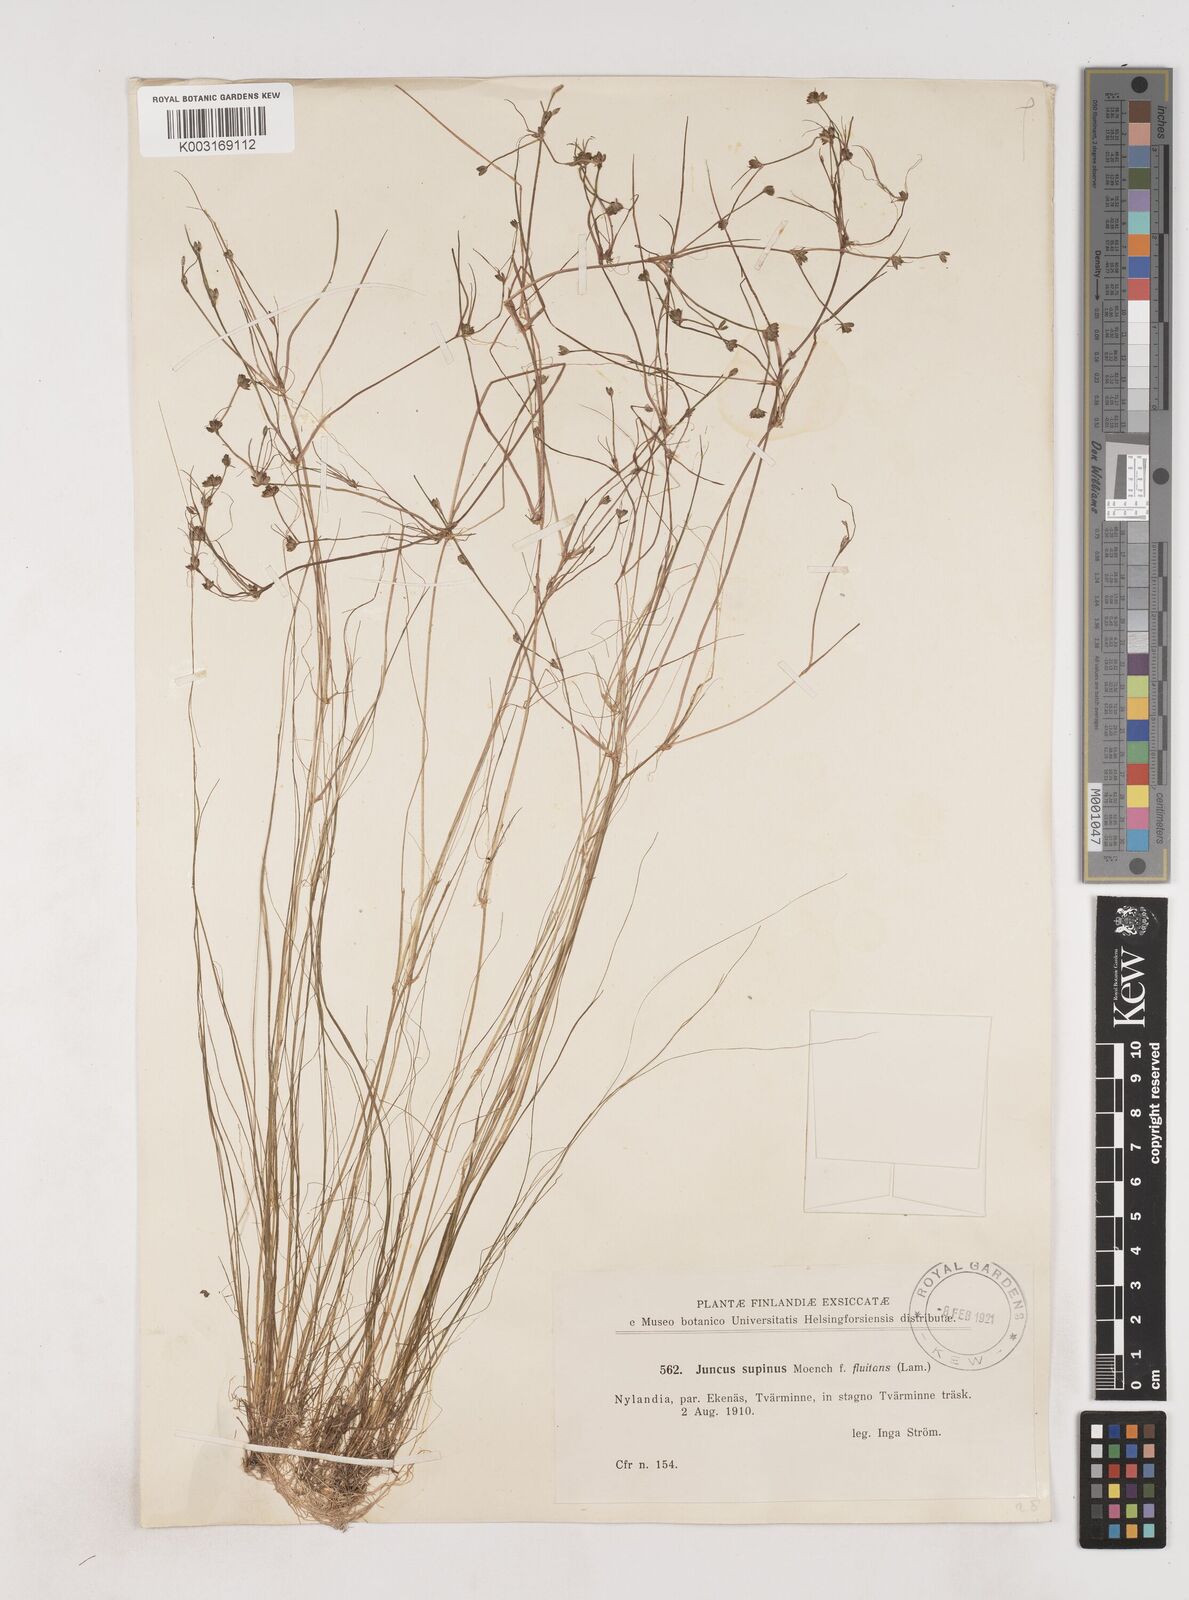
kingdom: Plantae
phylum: Tracheophyta
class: Liliopsida
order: Poales
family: Juncaceae
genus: Juncus
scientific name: Juncus bulbosus
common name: Bulbous rush
